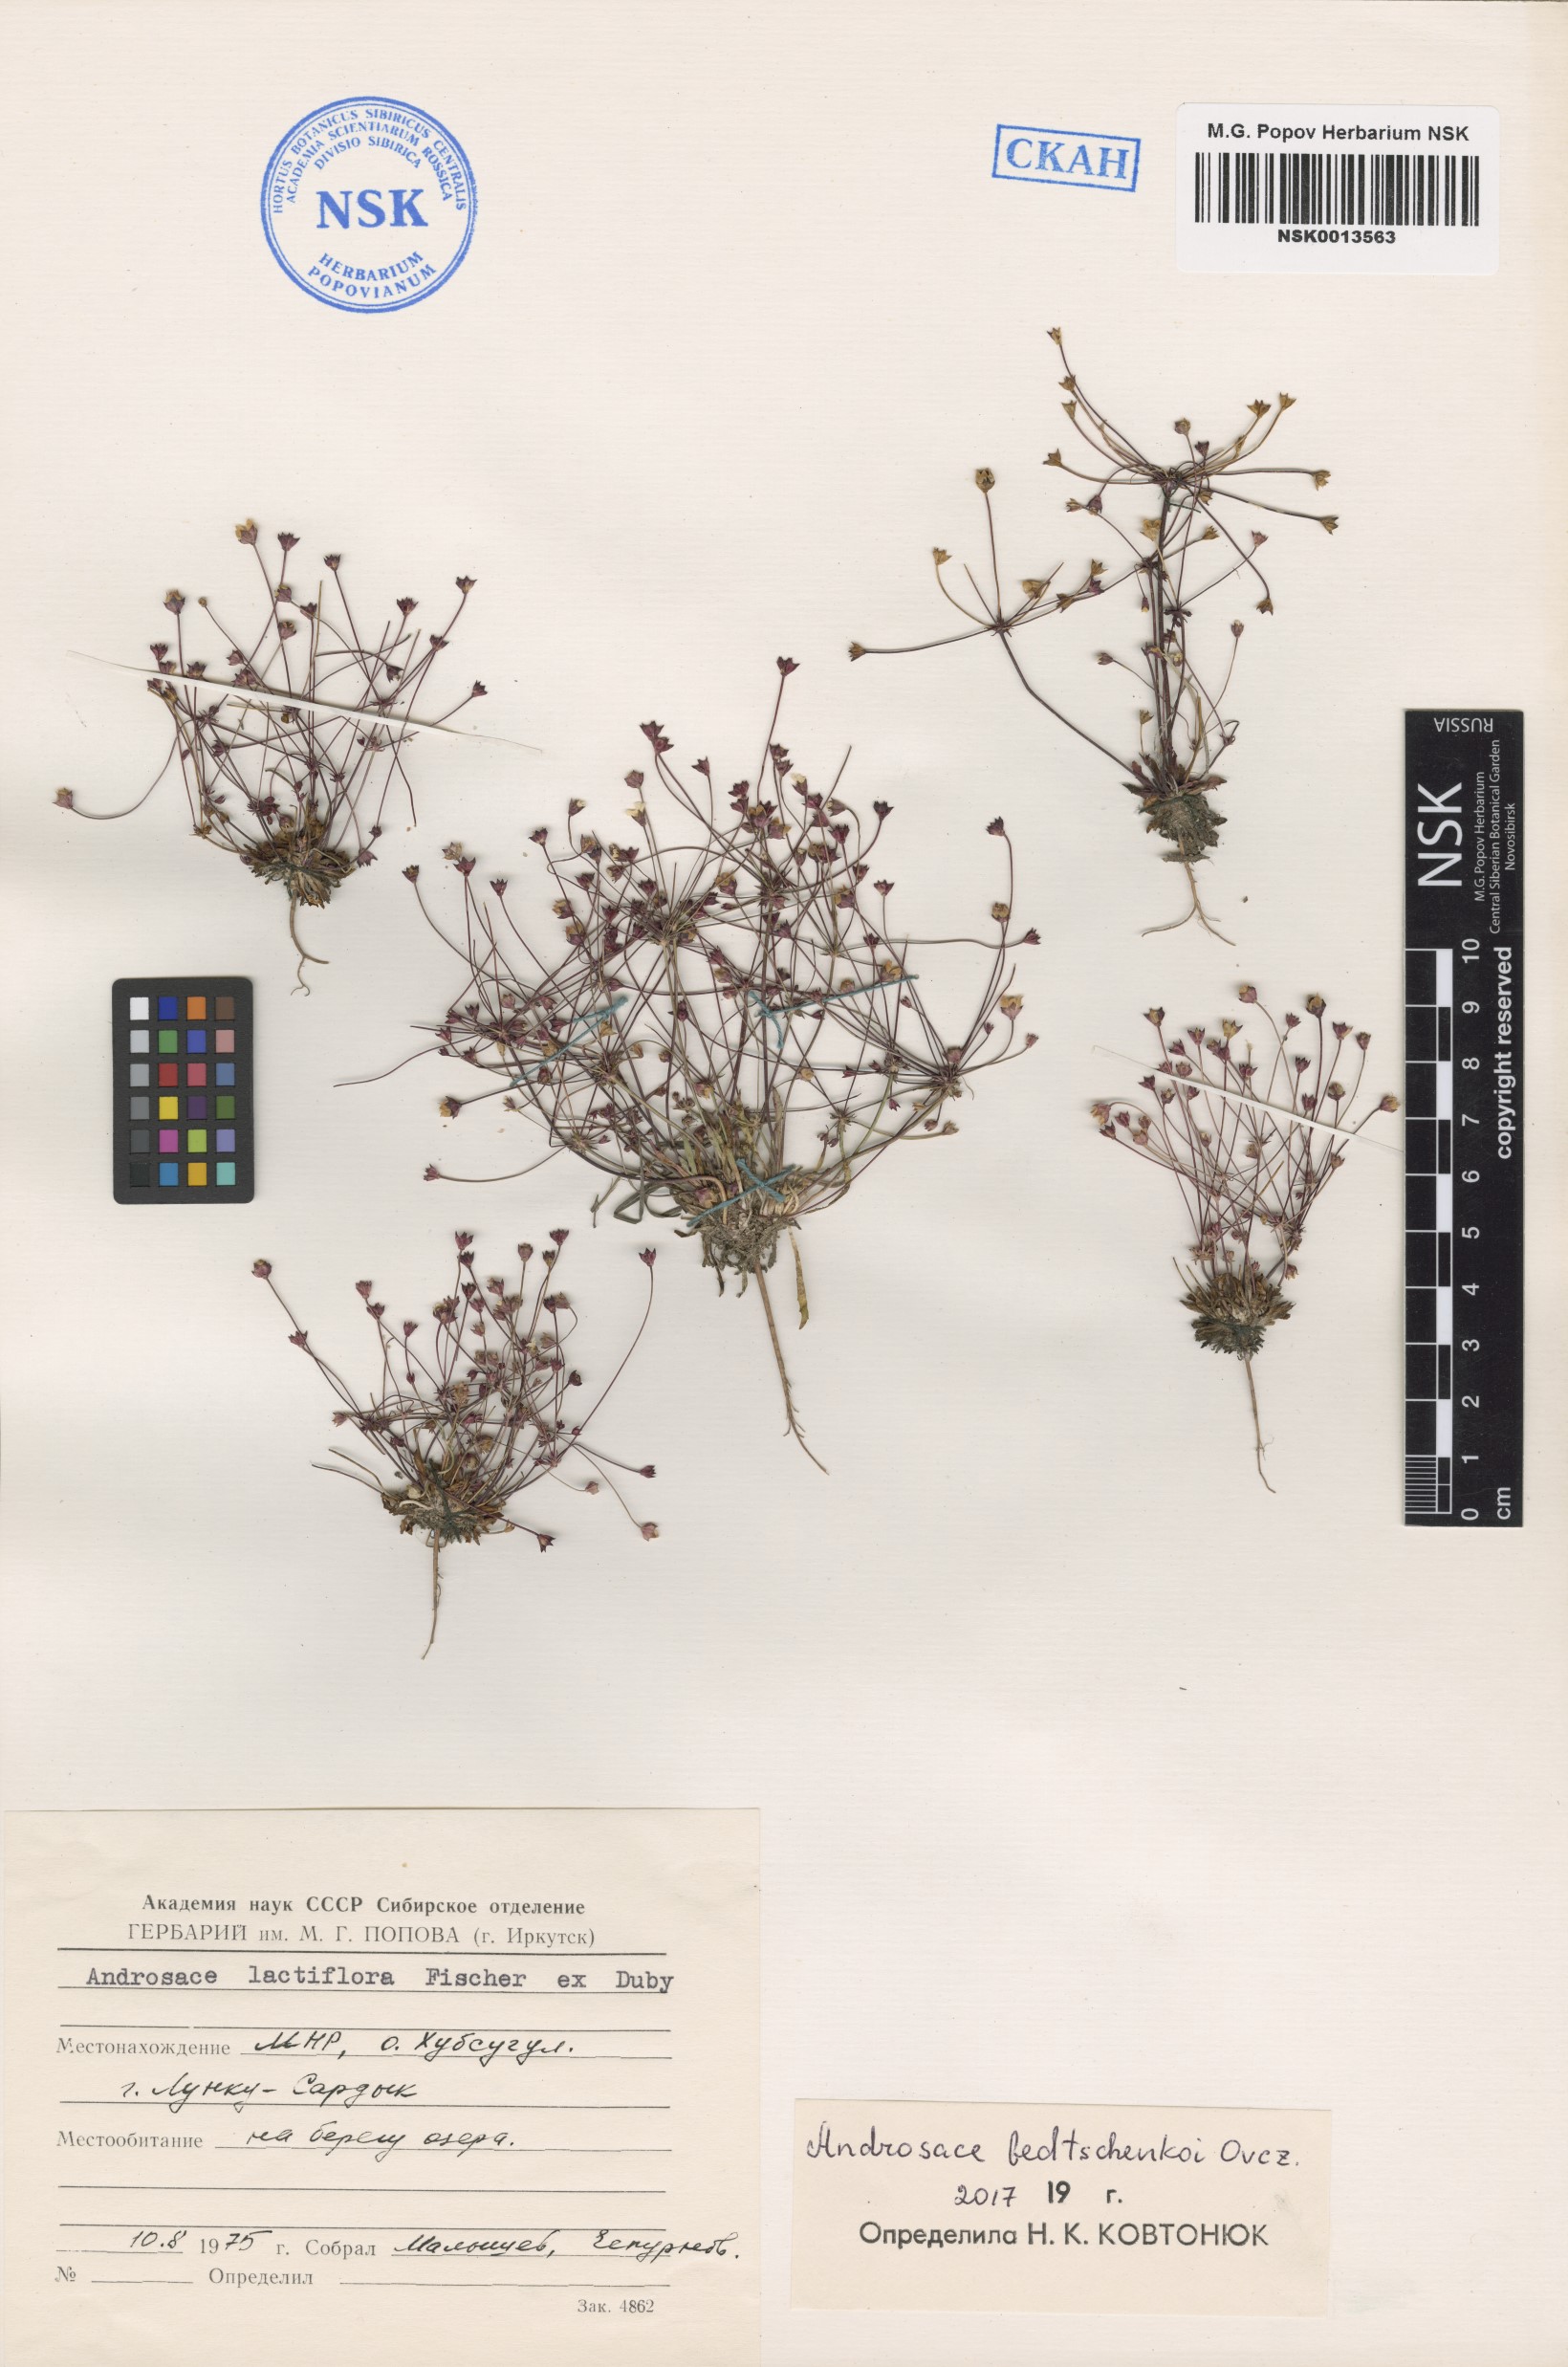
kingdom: Plantae
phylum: Tracheophyta
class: Magnoliopsida
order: Ericales
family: Primulaceae
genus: Androsace
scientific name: Androsace fedtschenkoi
